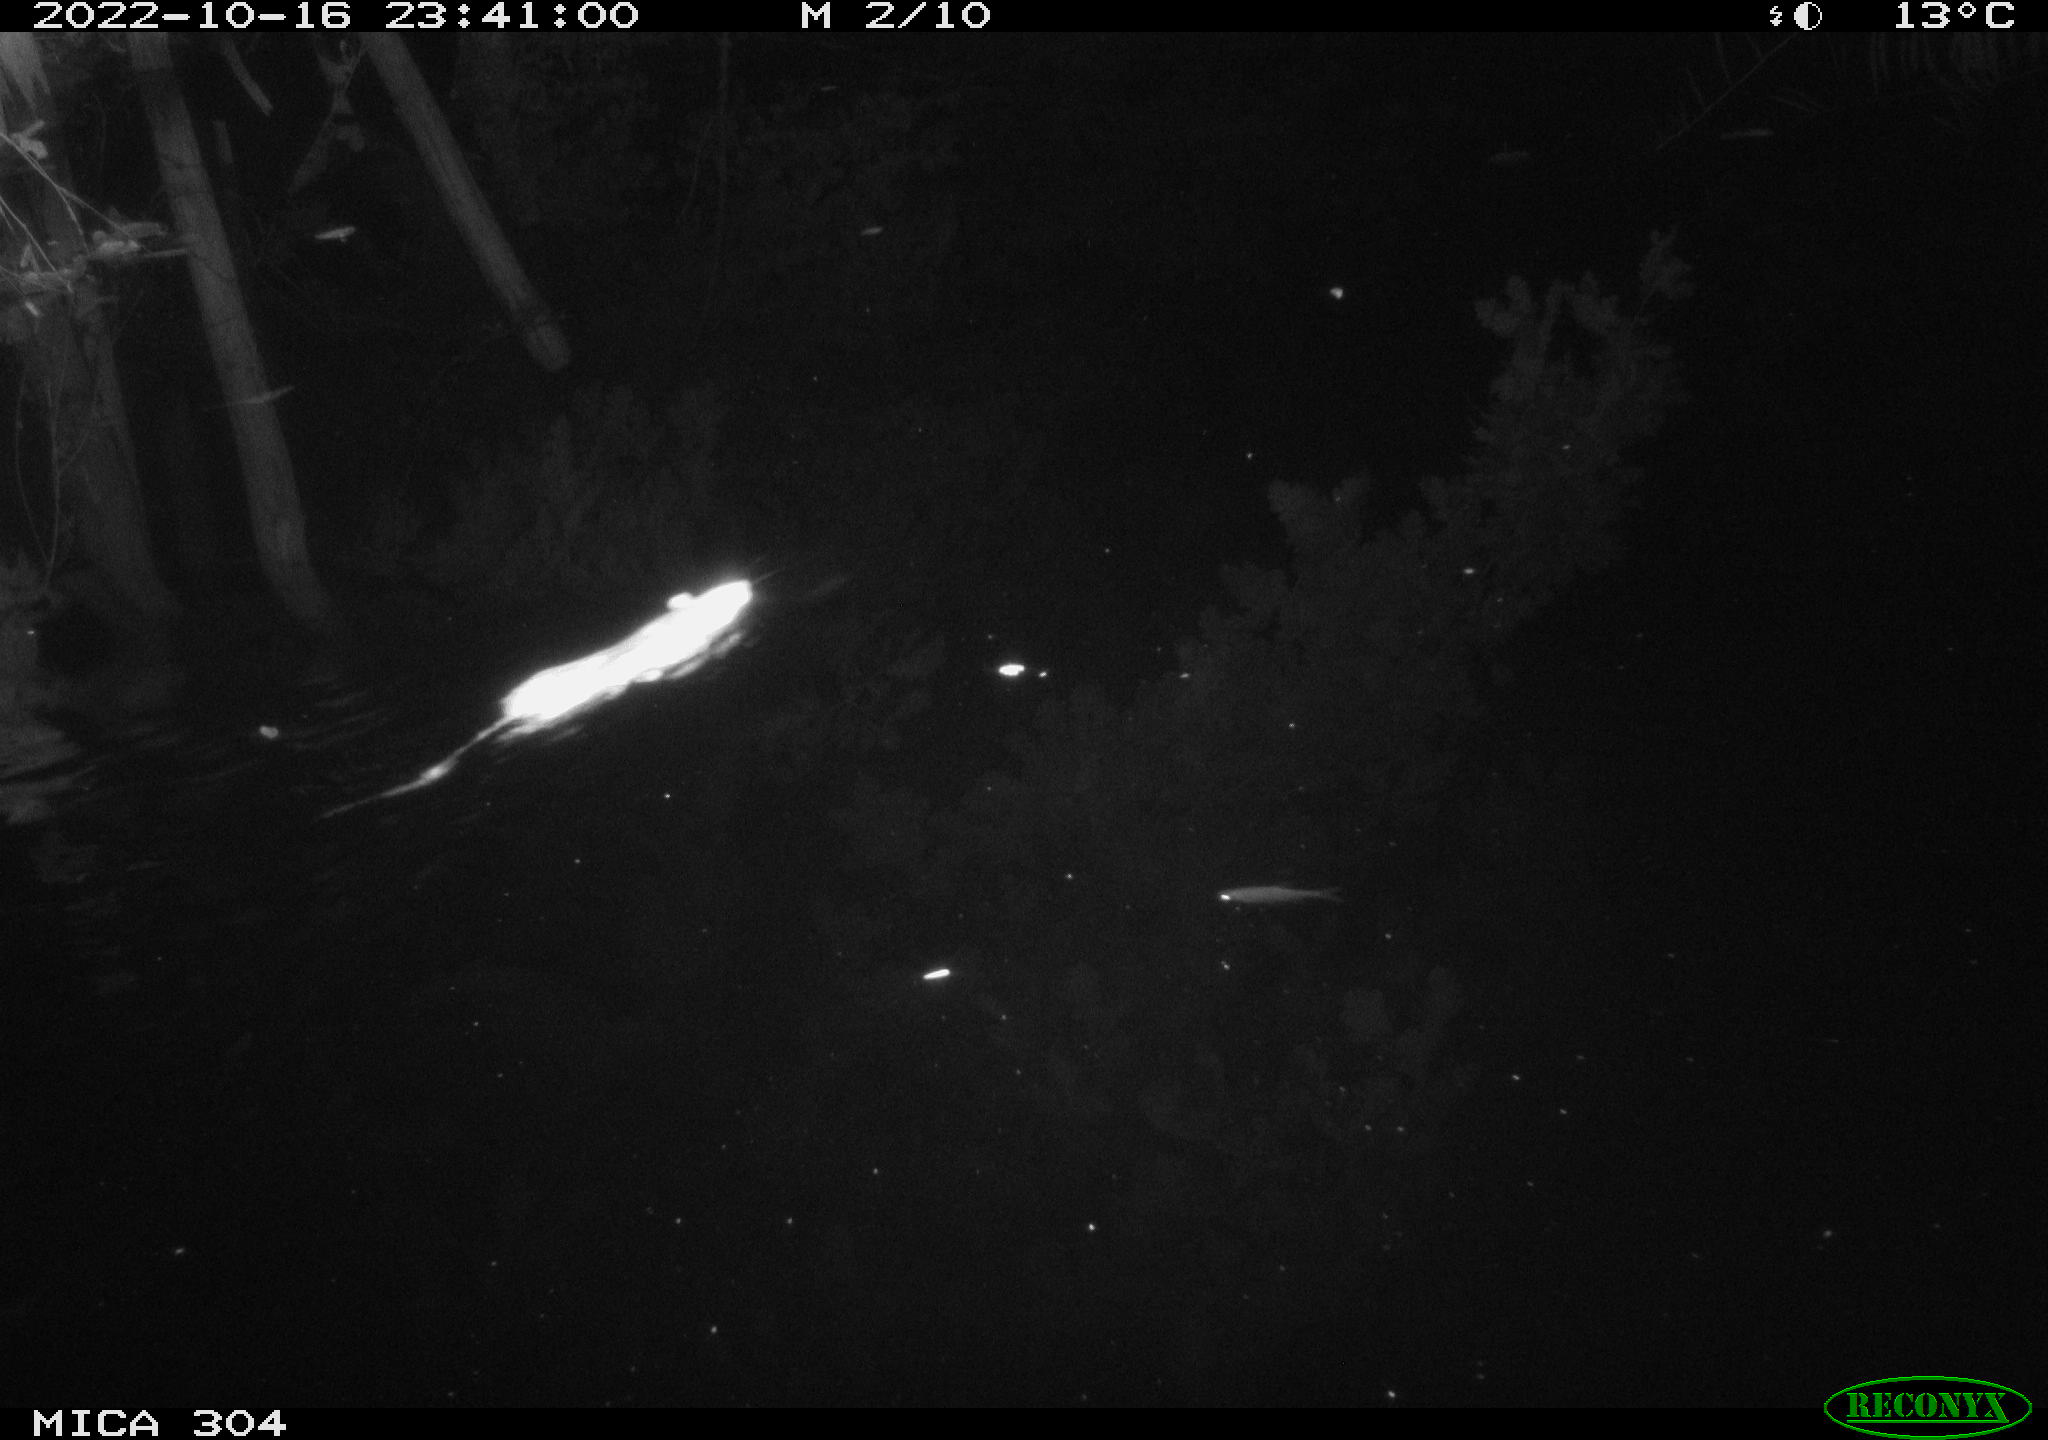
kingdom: Animalia
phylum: Chordata
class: Mammalia
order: Rodentia
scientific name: Rodentia
